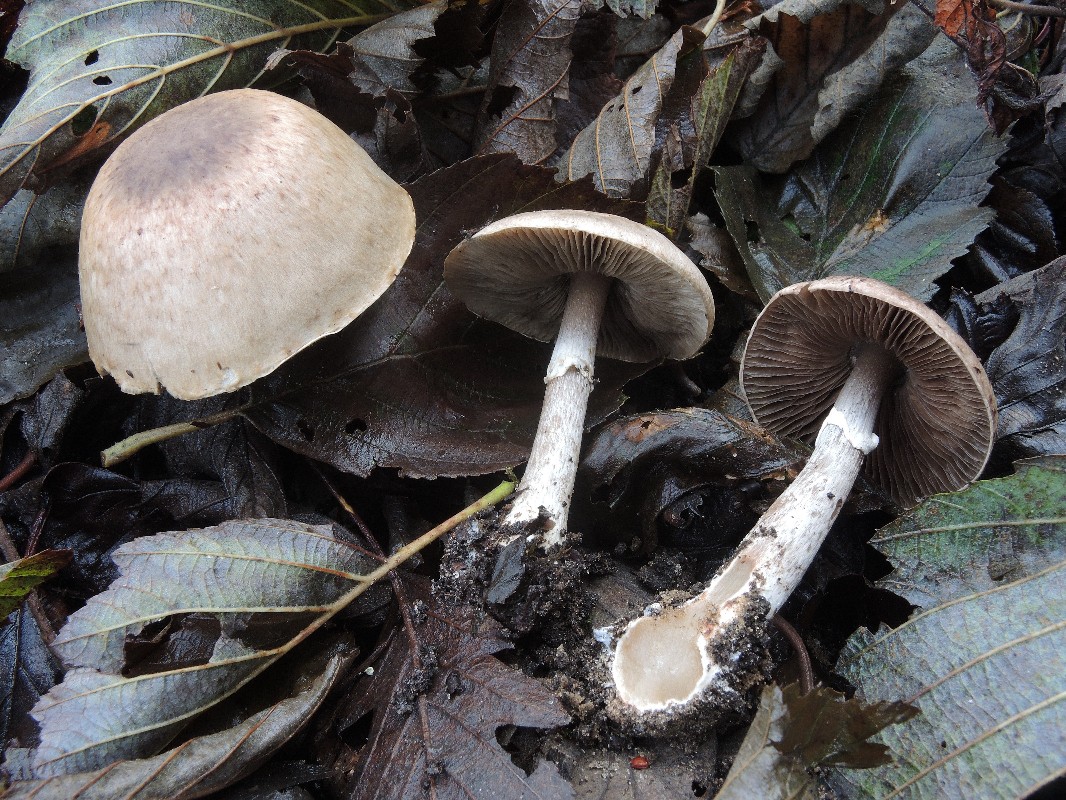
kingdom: Fungi
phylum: Basidiomycota
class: Agaricomycetes
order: Agaricales
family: Agaricaceae
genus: Agaricus
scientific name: Agaricus impudicus
